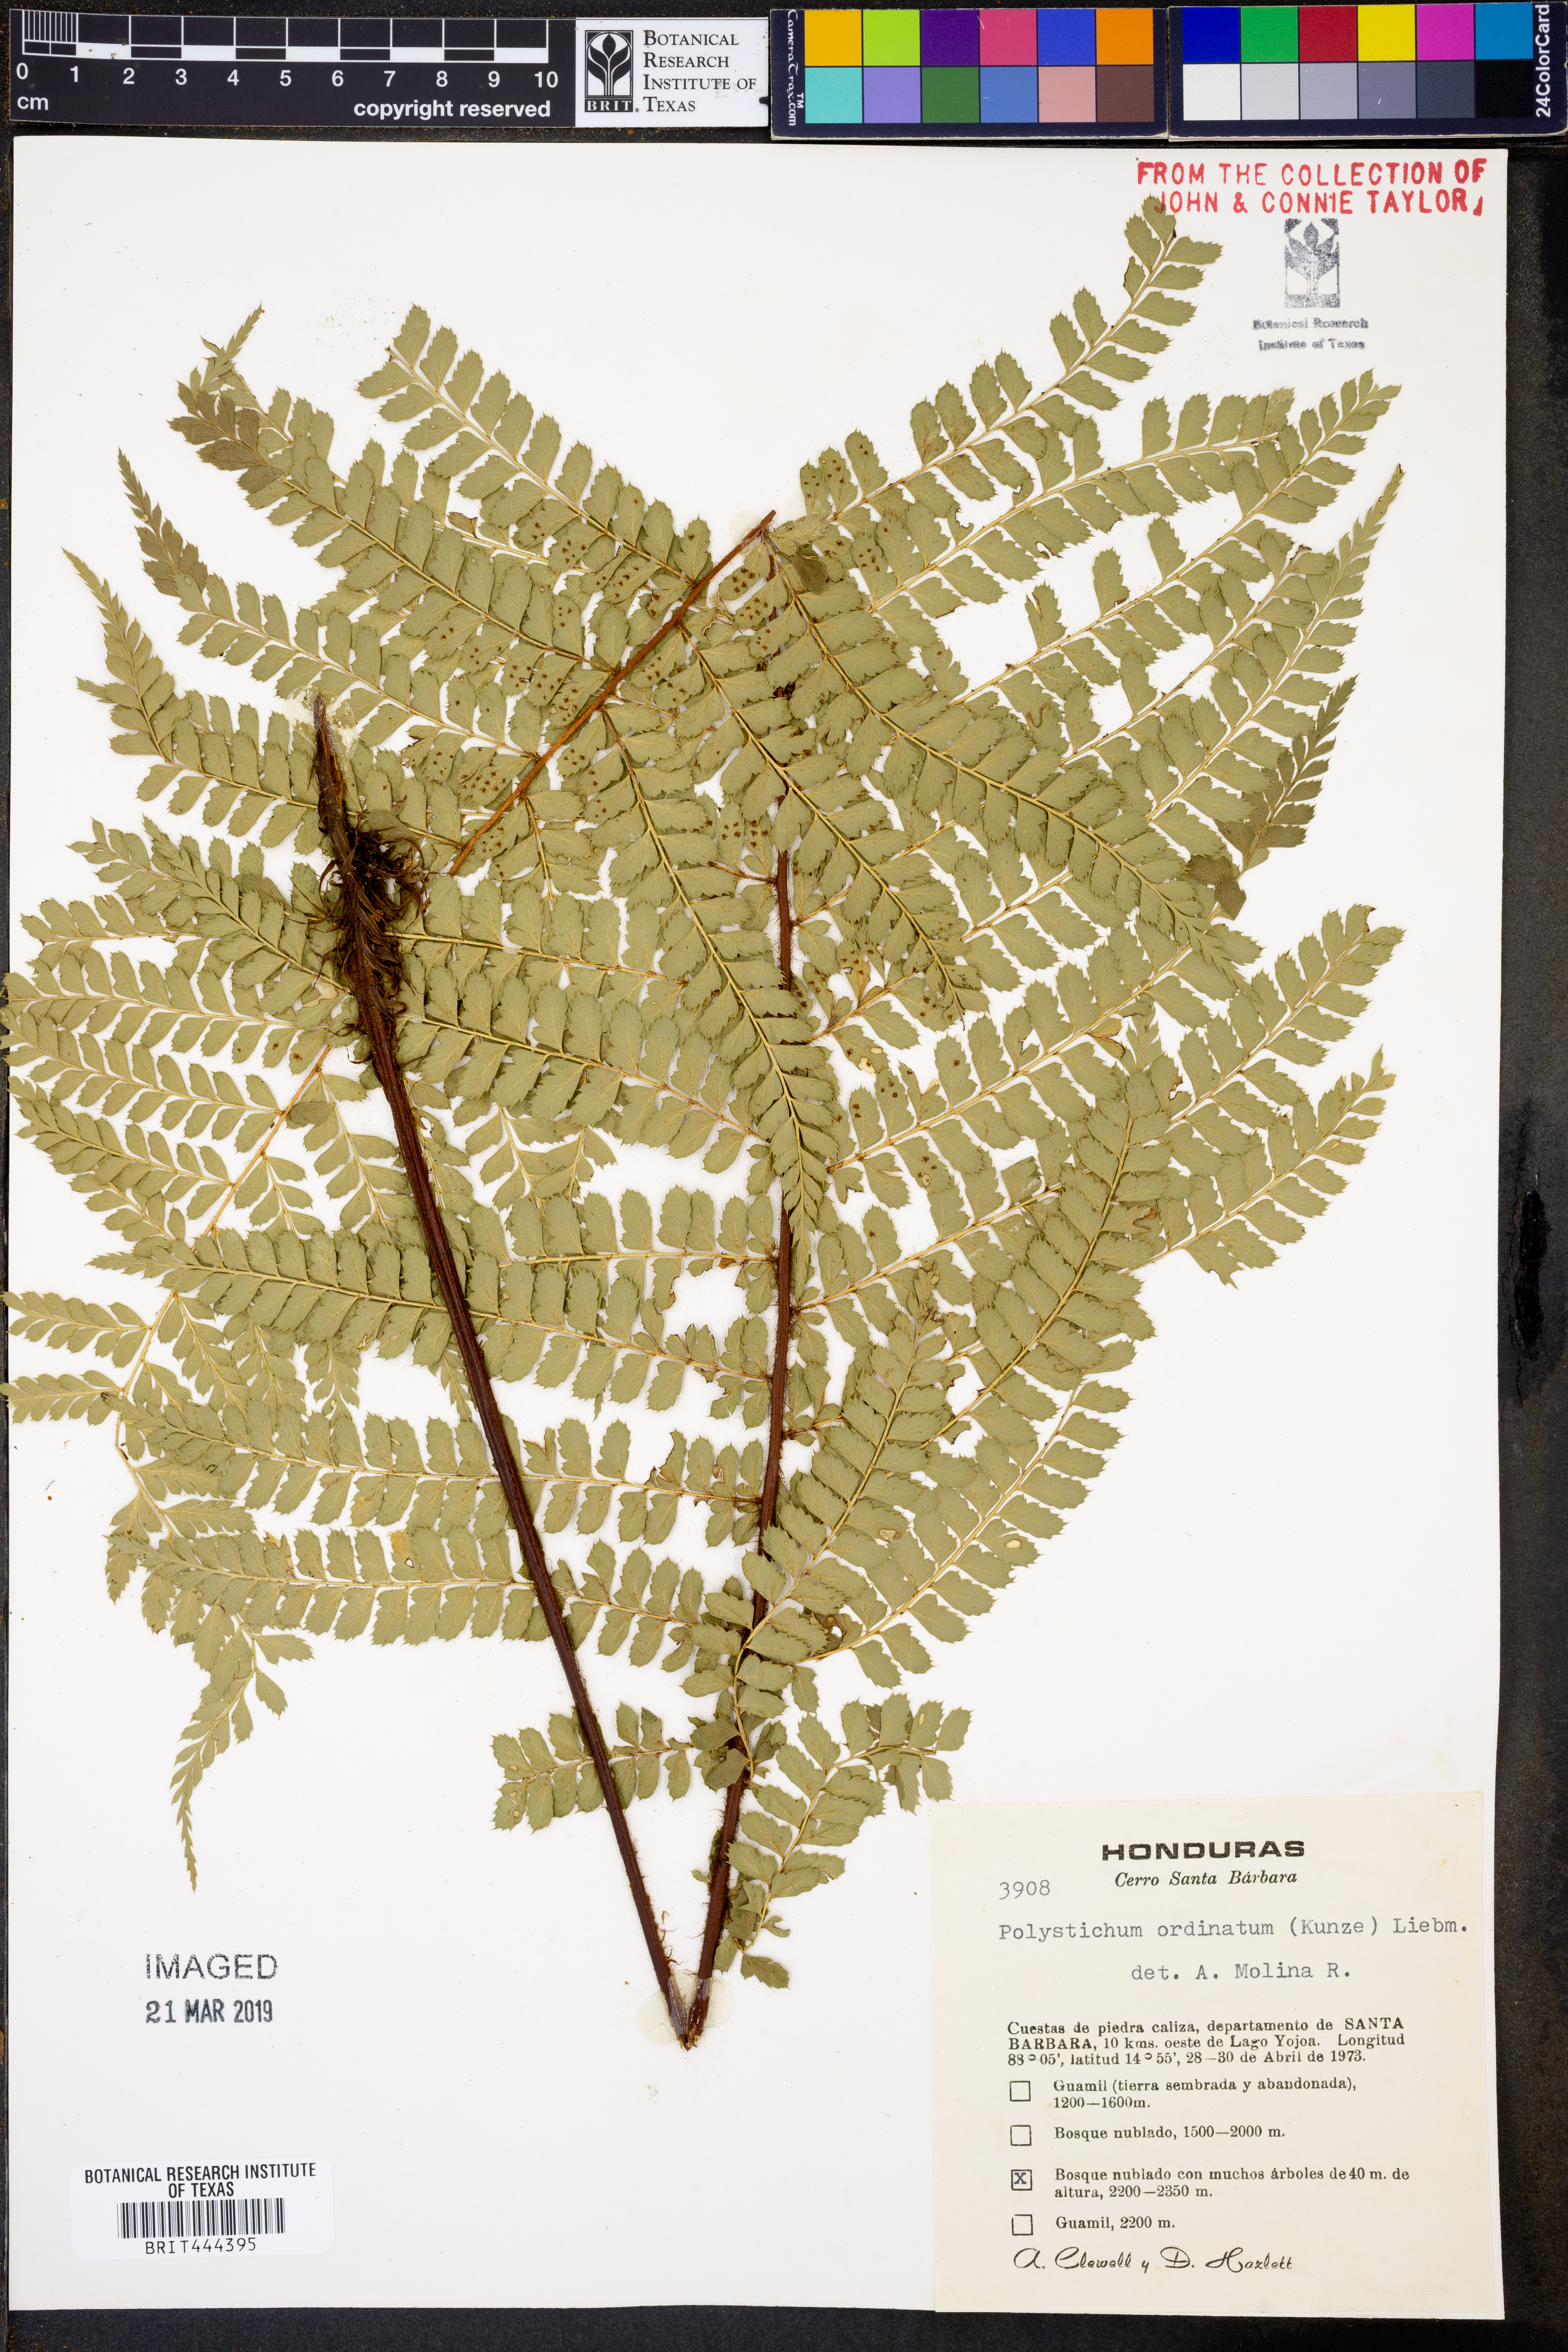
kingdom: Plantae
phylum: Tracheophyta
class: Polypodiopsida
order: Polypodiales
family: Dryopteridaceae
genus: Polystichum
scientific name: Polystichum ordinatum
